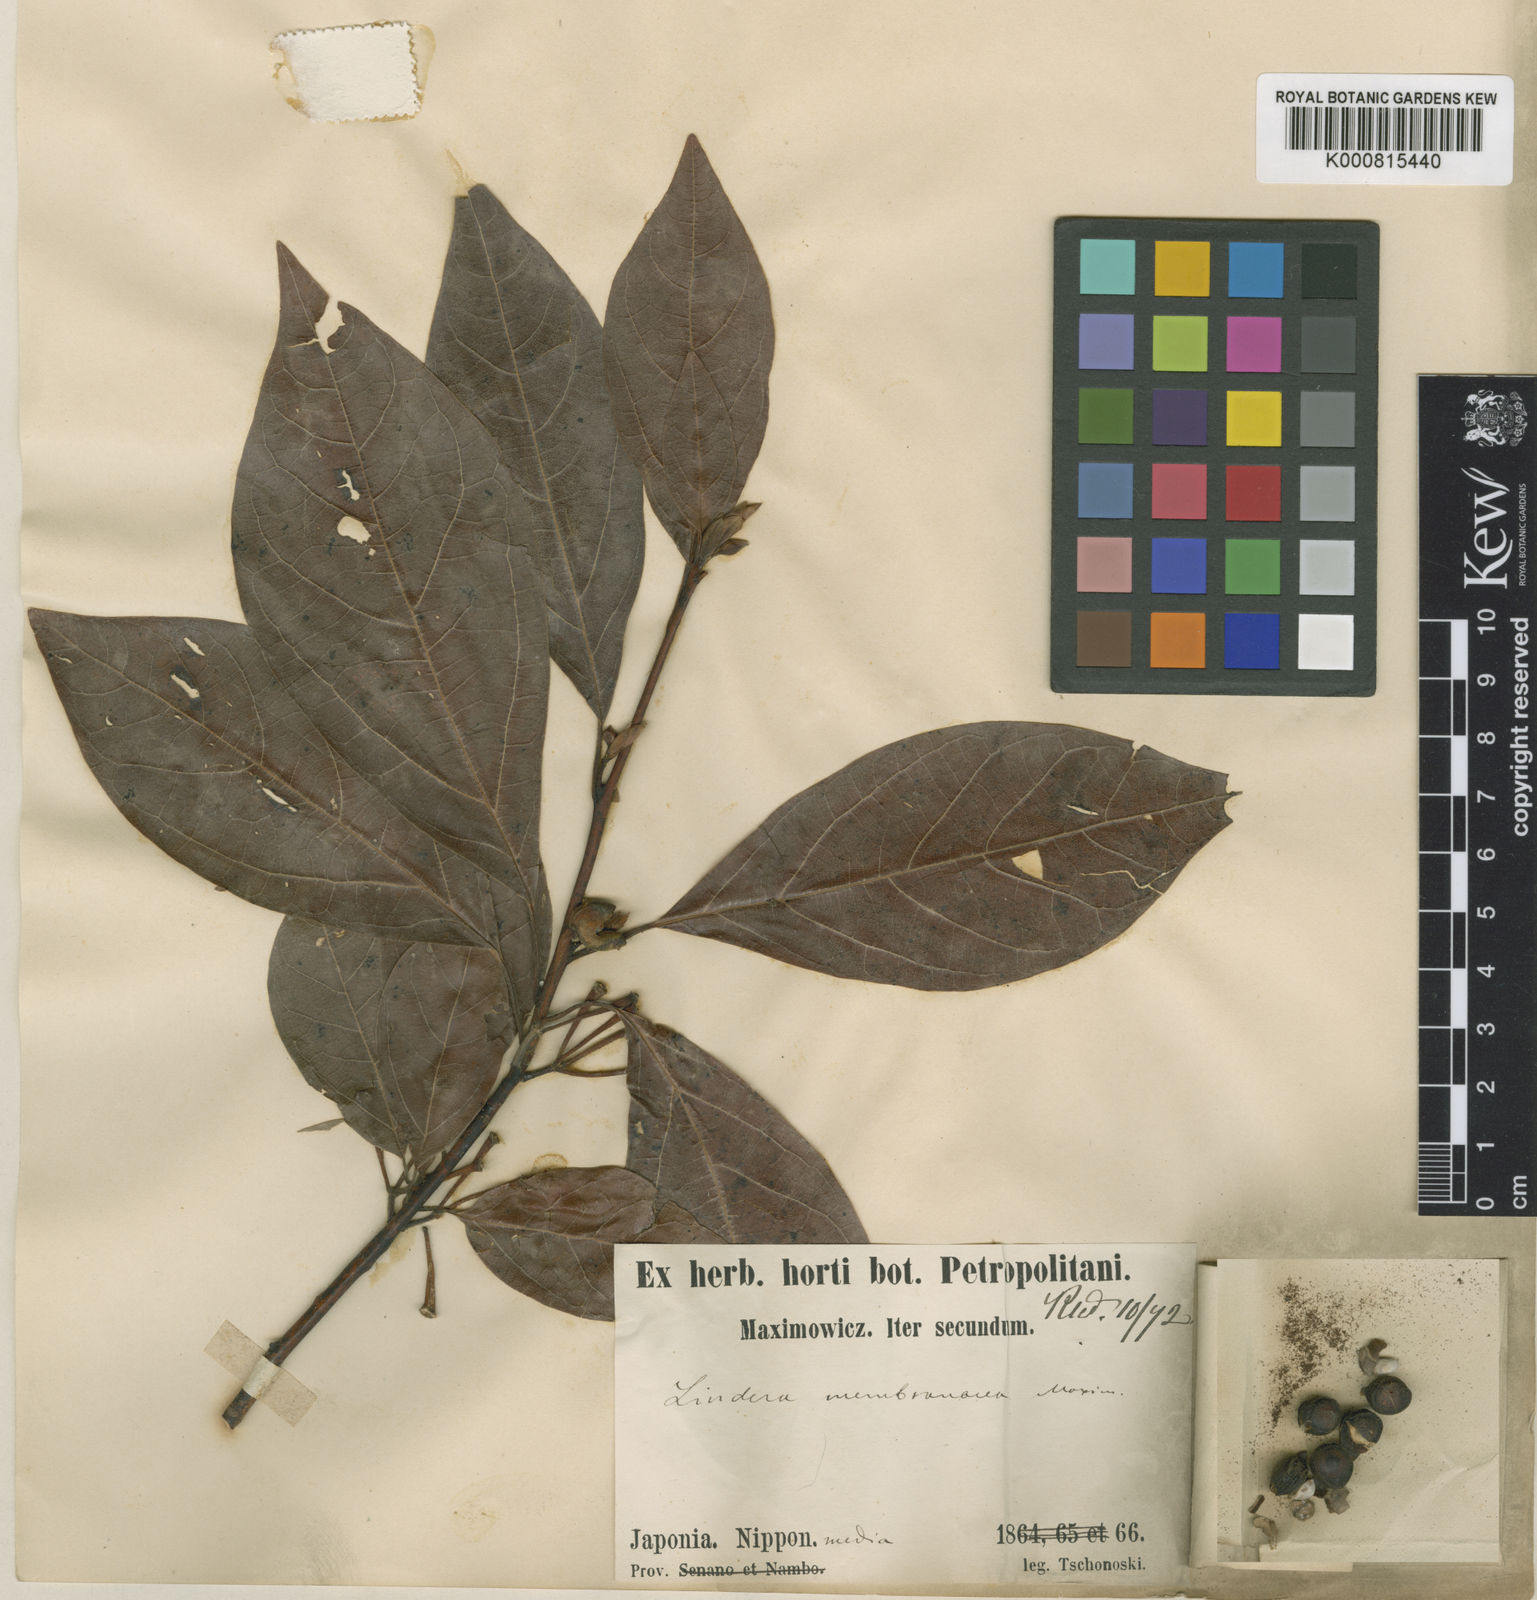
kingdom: Plantae
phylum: Tracheophyta
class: Magnoliopsida
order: Laurales
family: Lauraceae
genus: Lindera
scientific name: Lindera umbellata
